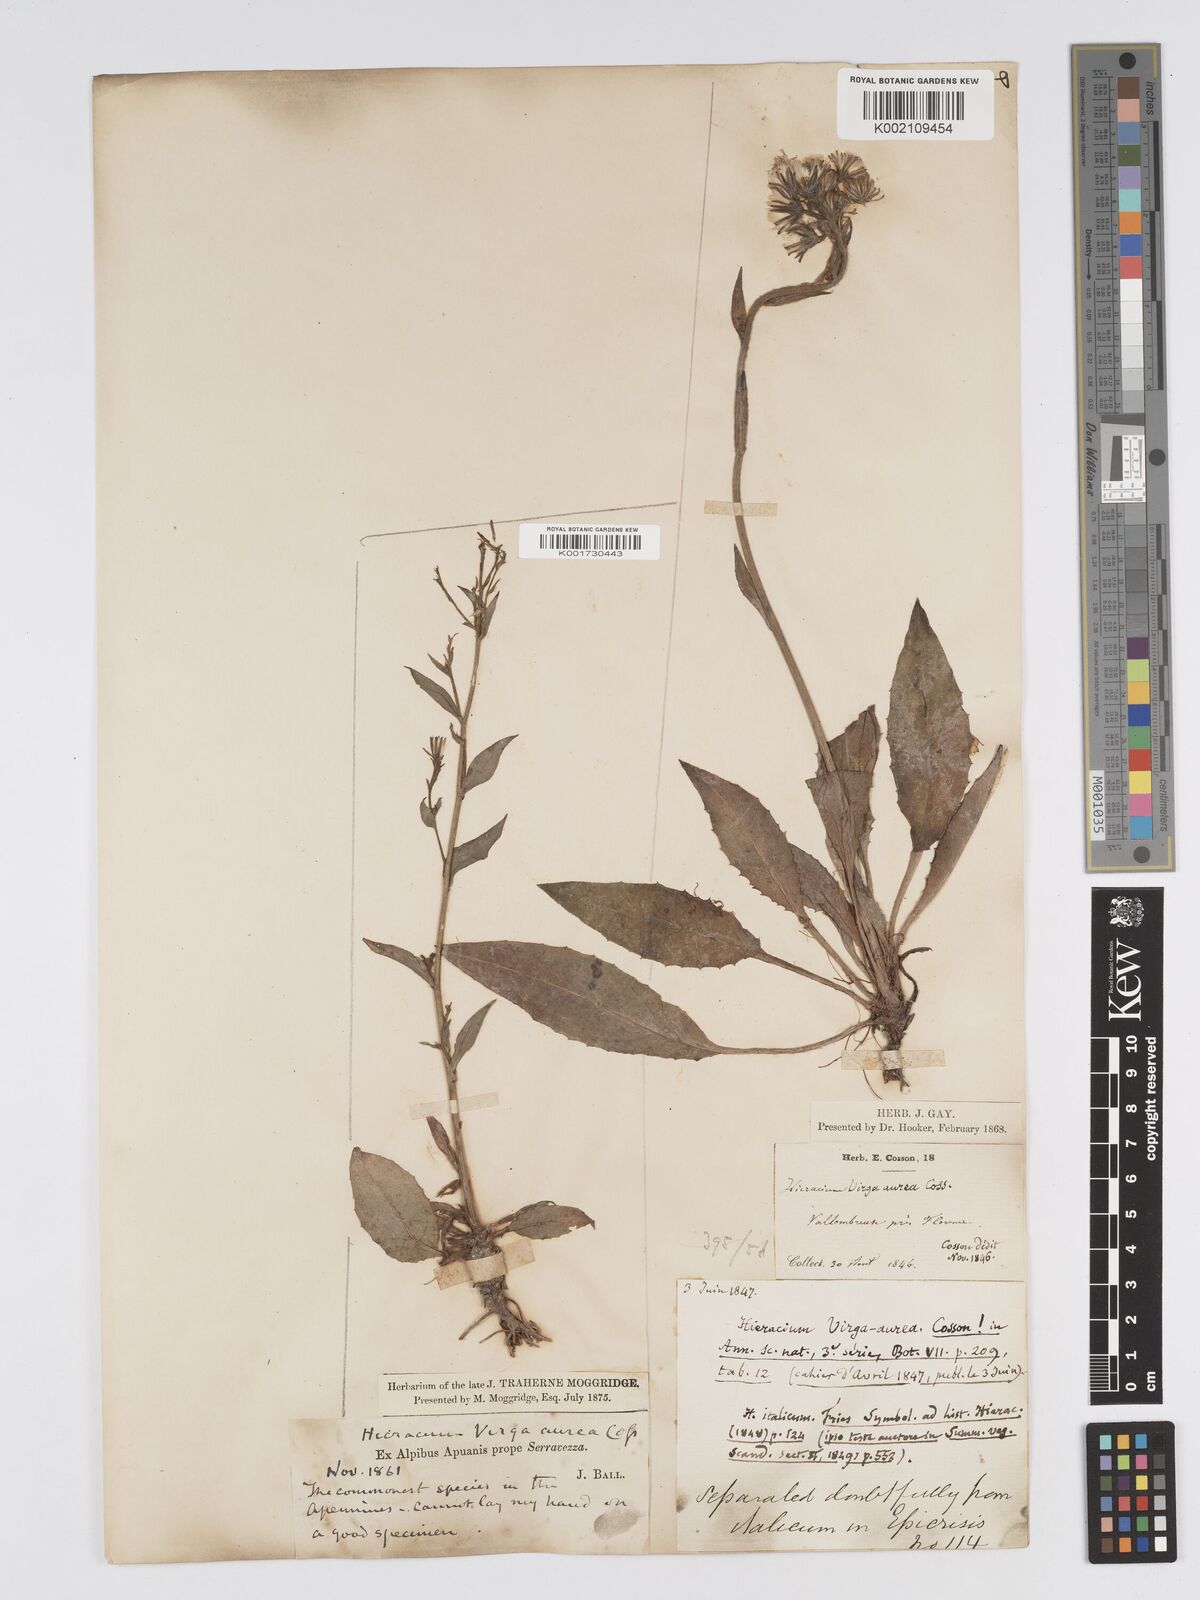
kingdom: Plantae
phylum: Tracheophyta
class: Magnoliopsida
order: Asterales
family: Asteraceae
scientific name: Asteraceae
